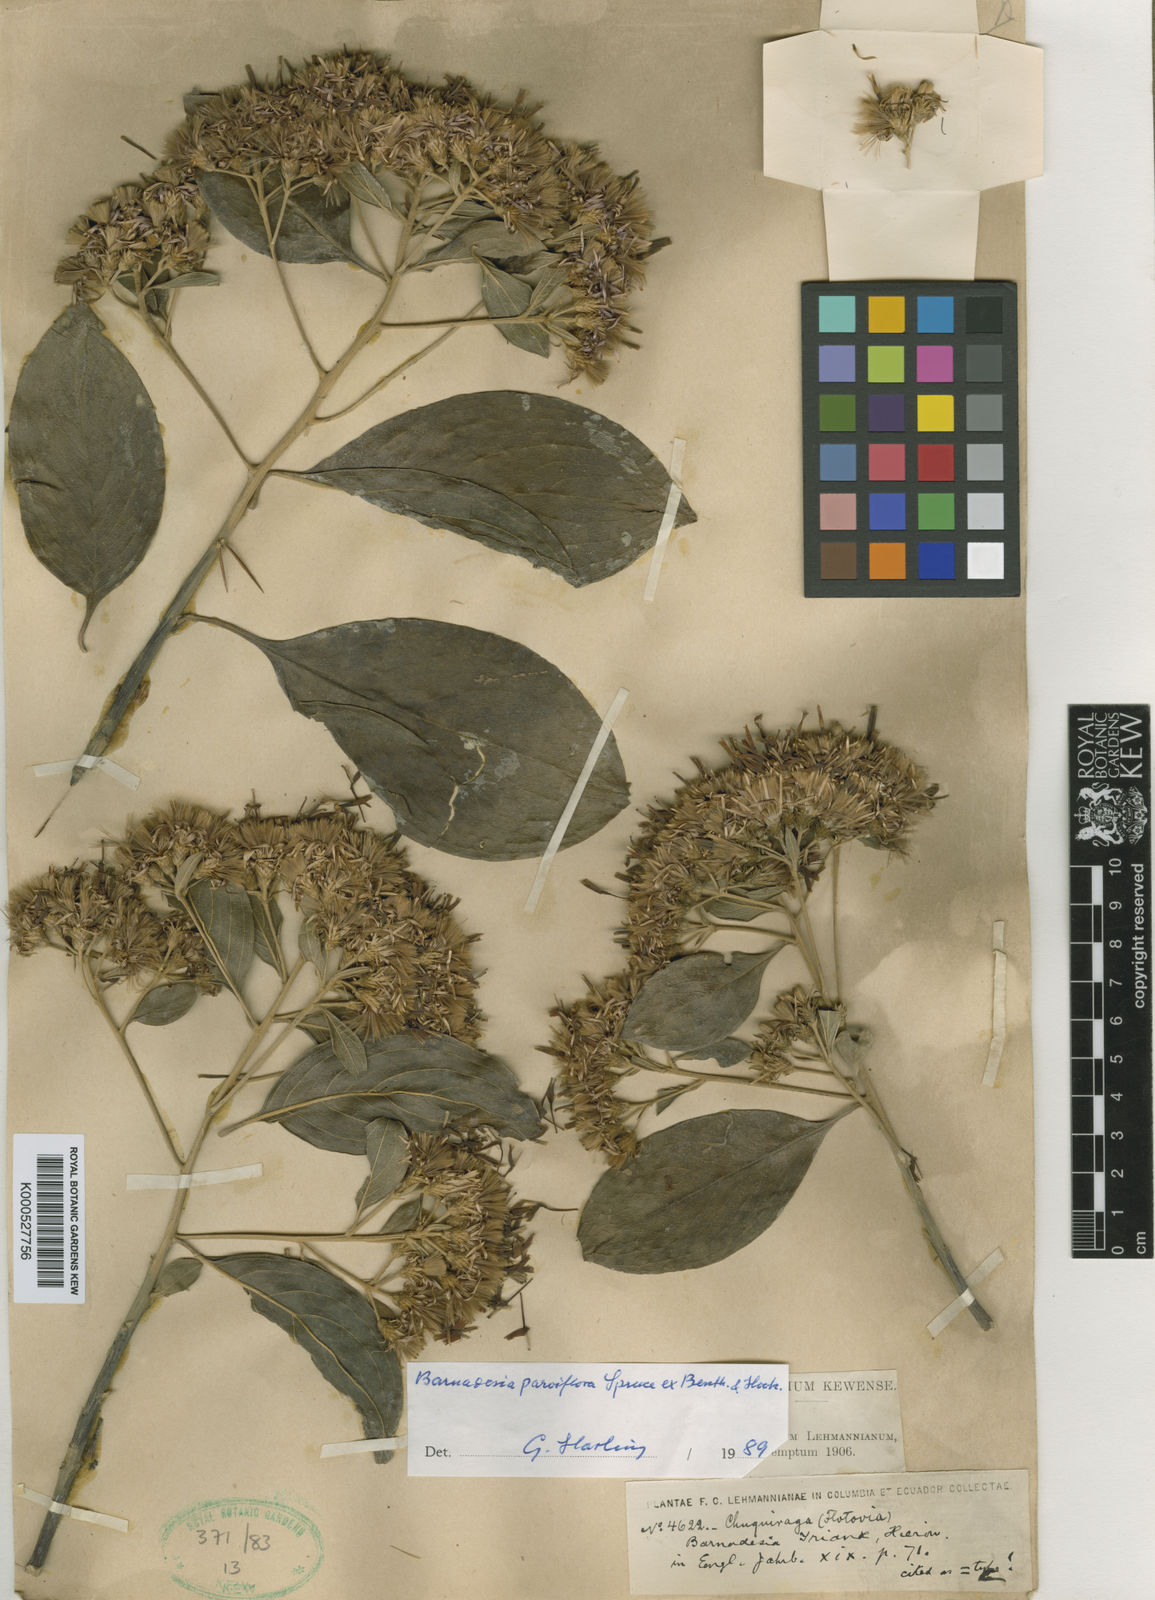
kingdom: Plantae
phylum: Tracheophyta
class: Magnoliopsida
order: Asterales
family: Asteraceae
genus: Barnadesia
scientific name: Barnadesia parviflora
